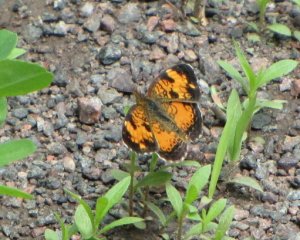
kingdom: Animalia
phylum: Arthropoda
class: Insecta
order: Lepidoptera
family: Nymphalidae
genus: Phyciodes
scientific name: Phyciodes tharos
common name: Northern Crescent
